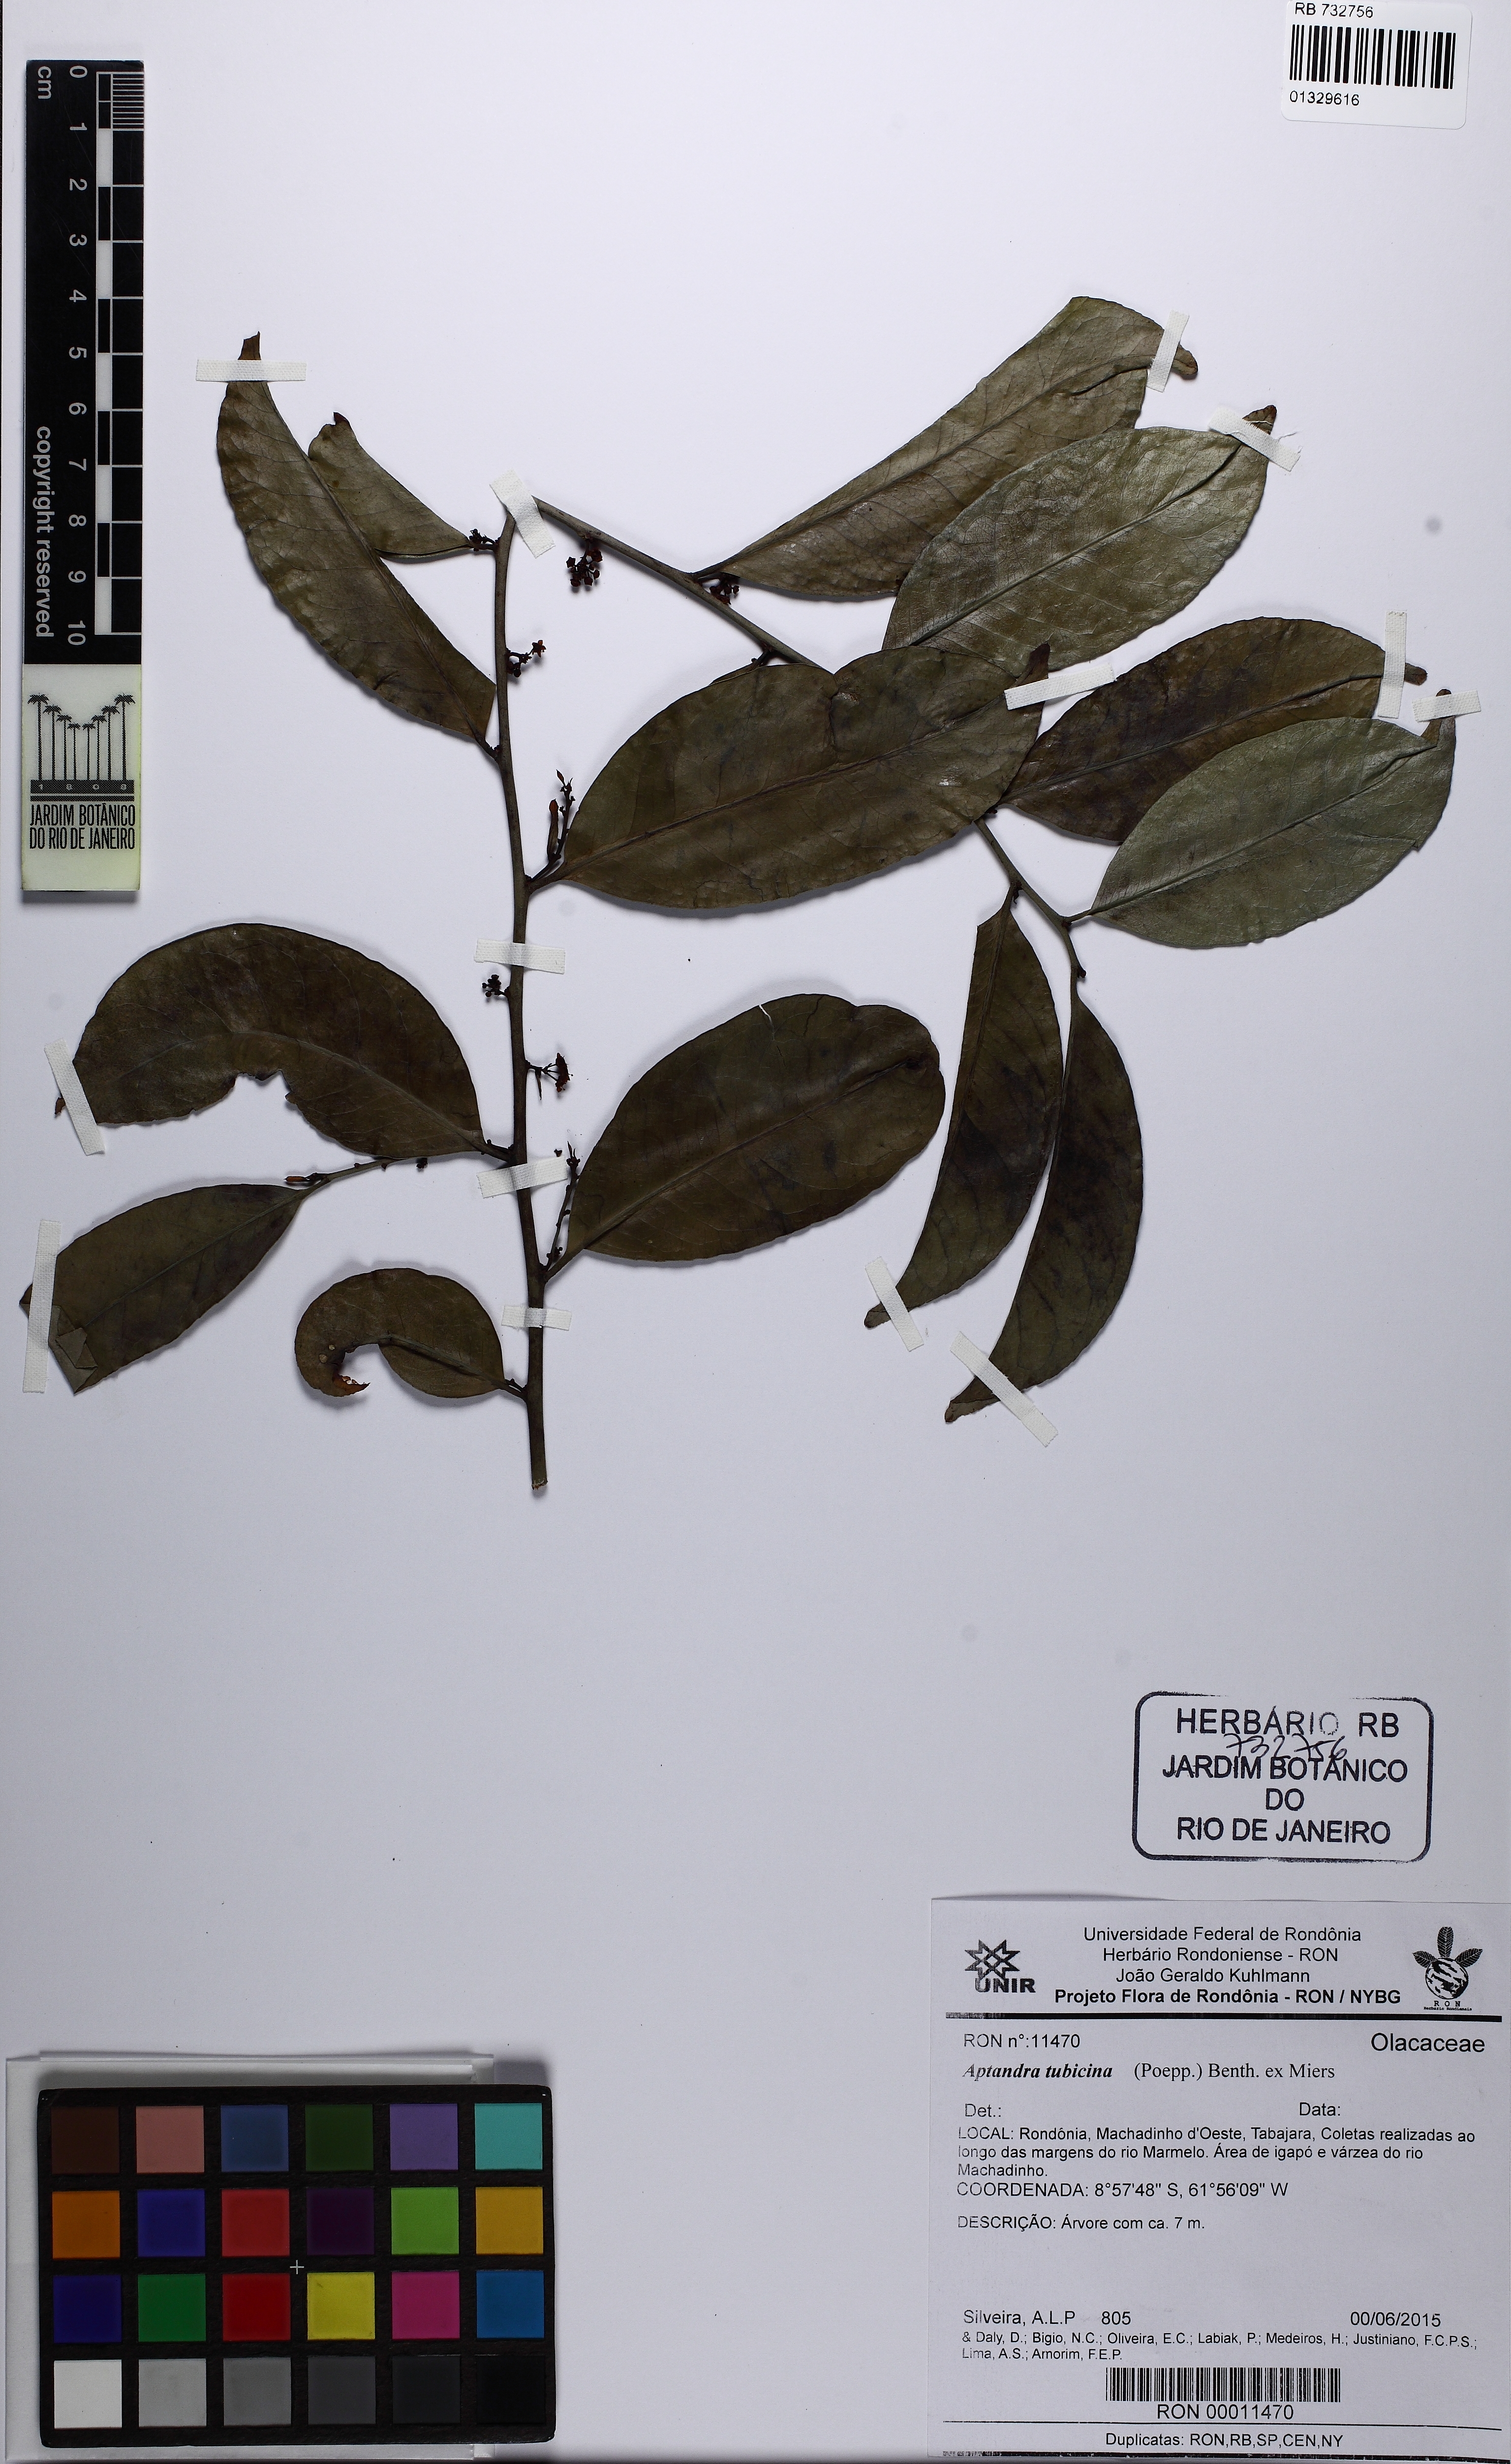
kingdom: Plantae
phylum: Tracheophyta
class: Magnoliopsida
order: Santalales
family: Aptandraceae
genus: Aptandra
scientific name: Aptandra tubicina
